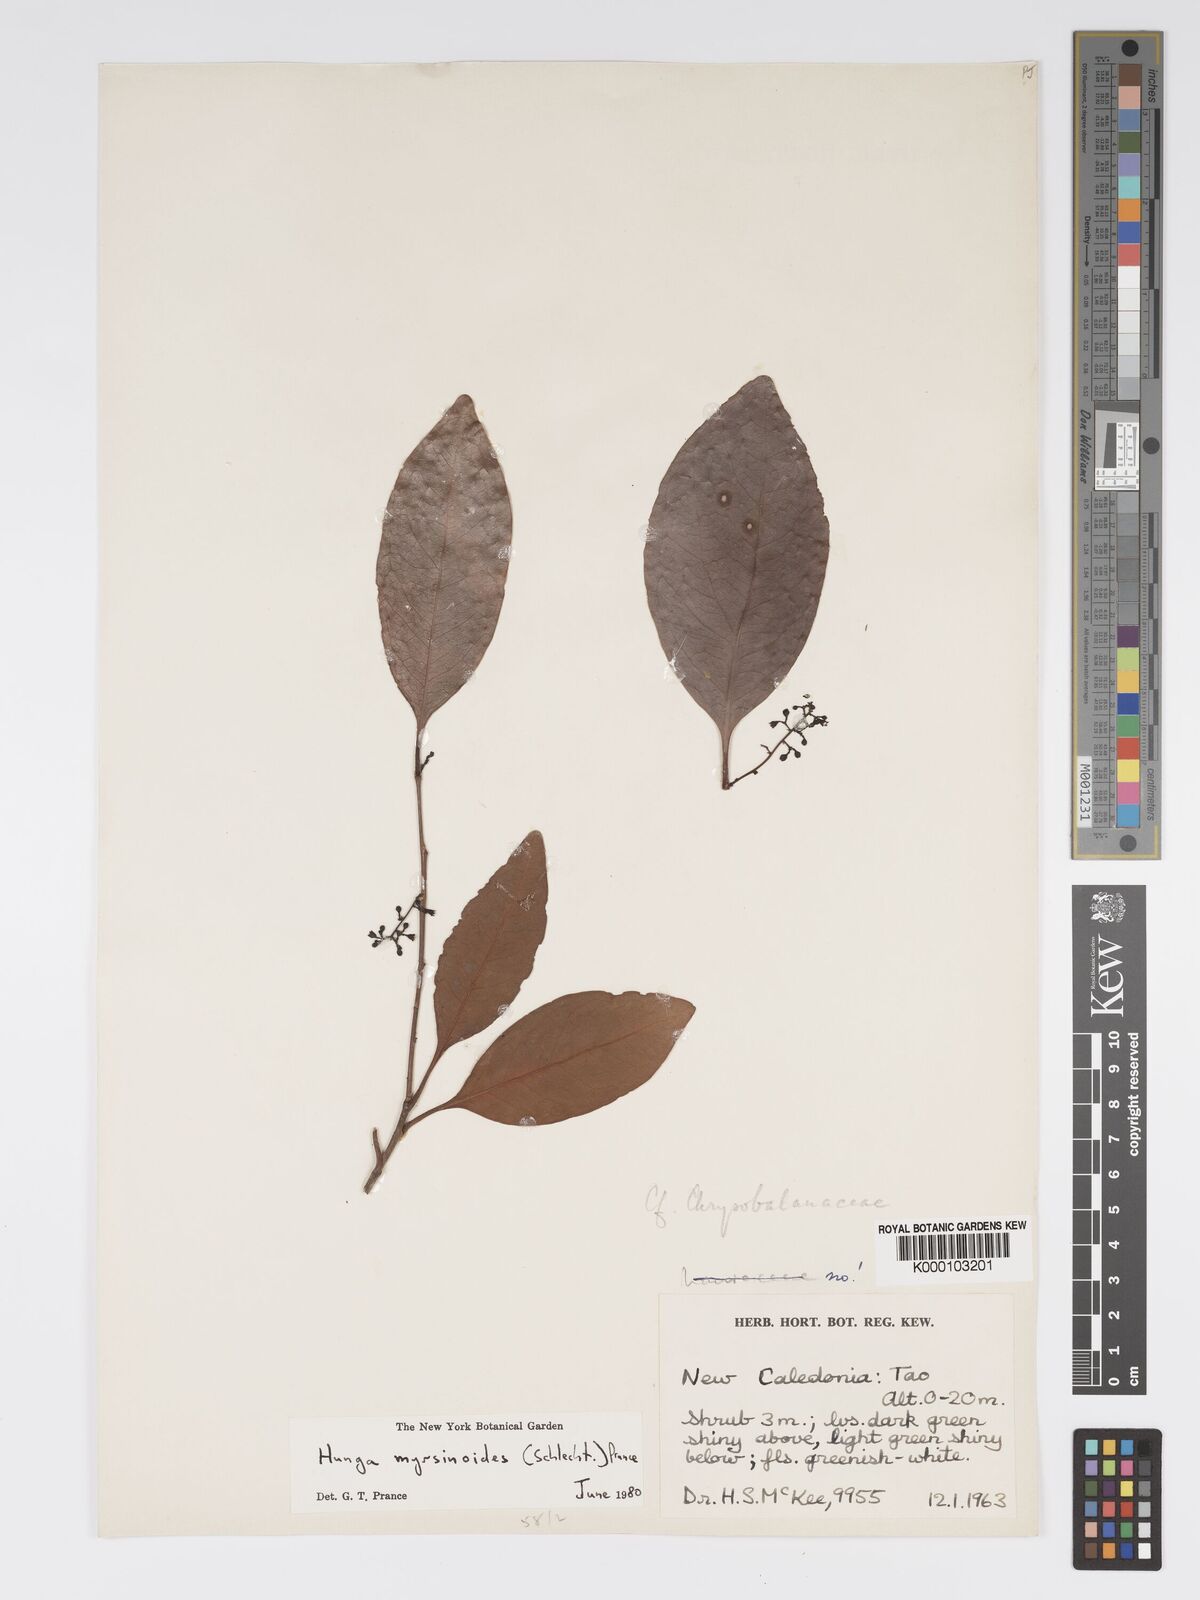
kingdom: Plantae
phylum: Tracheophyta
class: Magnoliopsida
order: Malpighiales
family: Chrysobalanaceae
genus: Hunga
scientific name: Hunga myrsinoides
